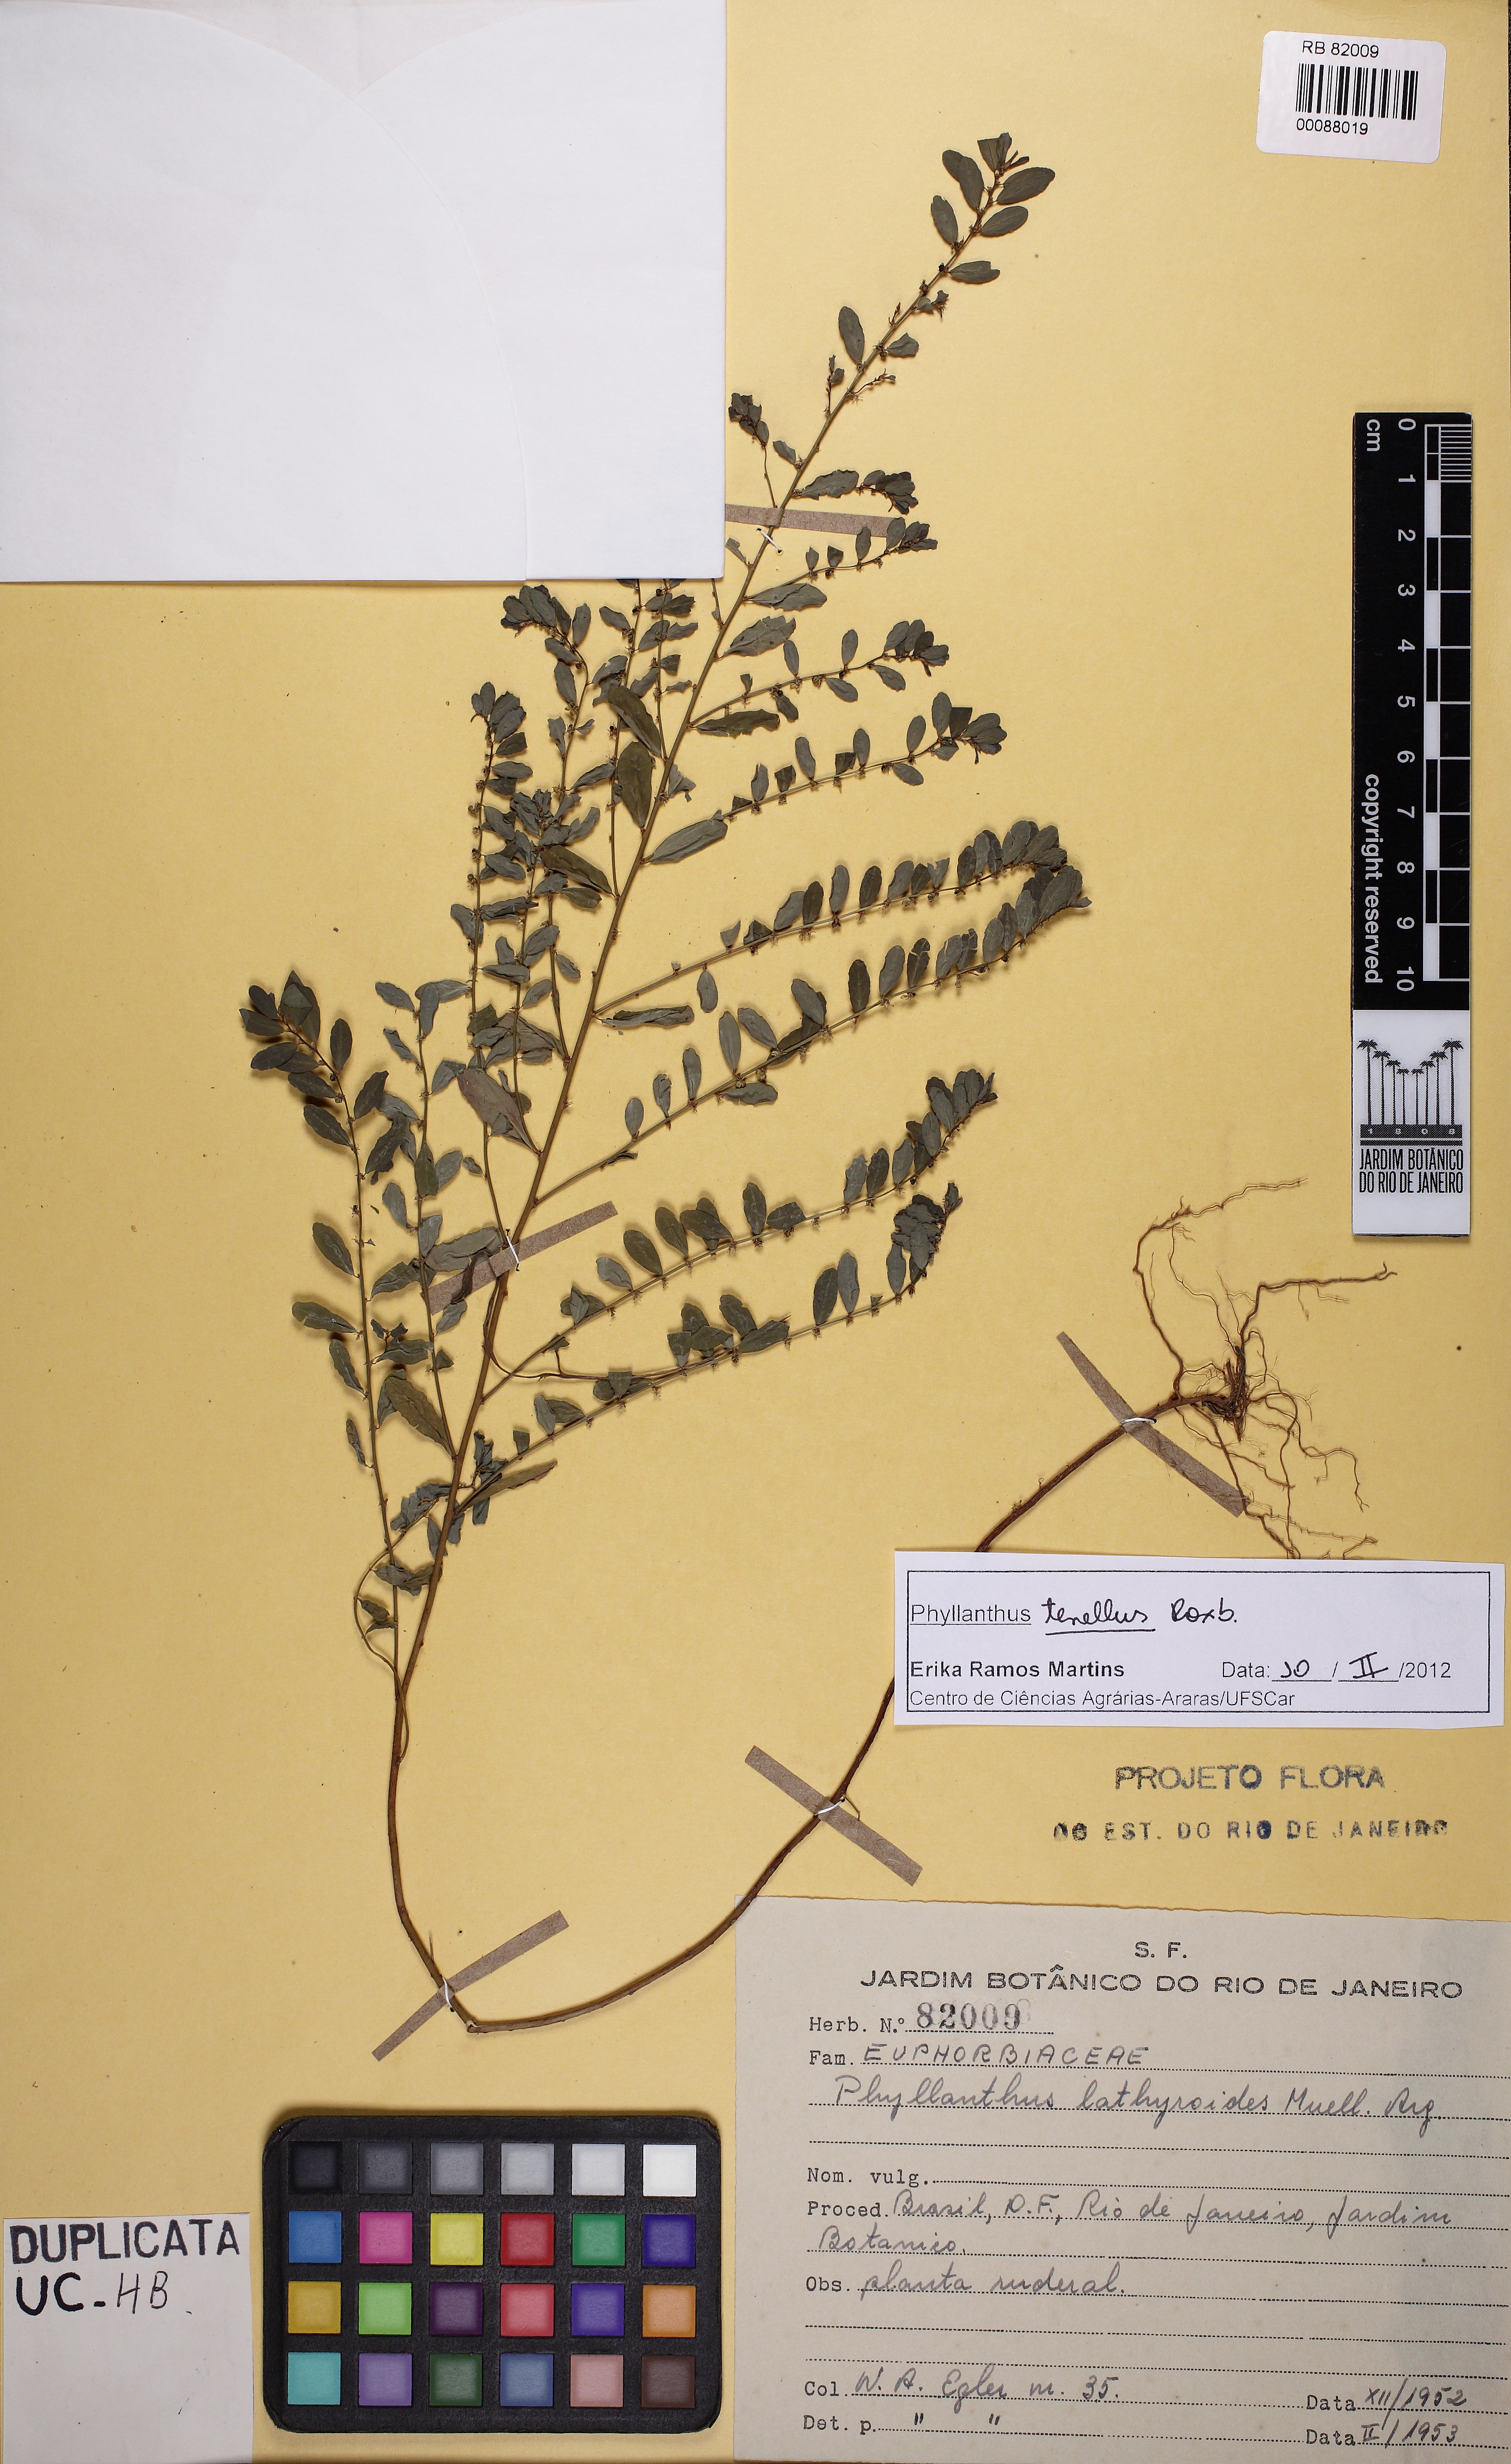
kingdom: Plantae
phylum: Tracheophyta
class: Magnoliopsida
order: Malpighiales
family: Phyllanthaceae
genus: Phyllanthus
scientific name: Phyllanthus caroliniensis
